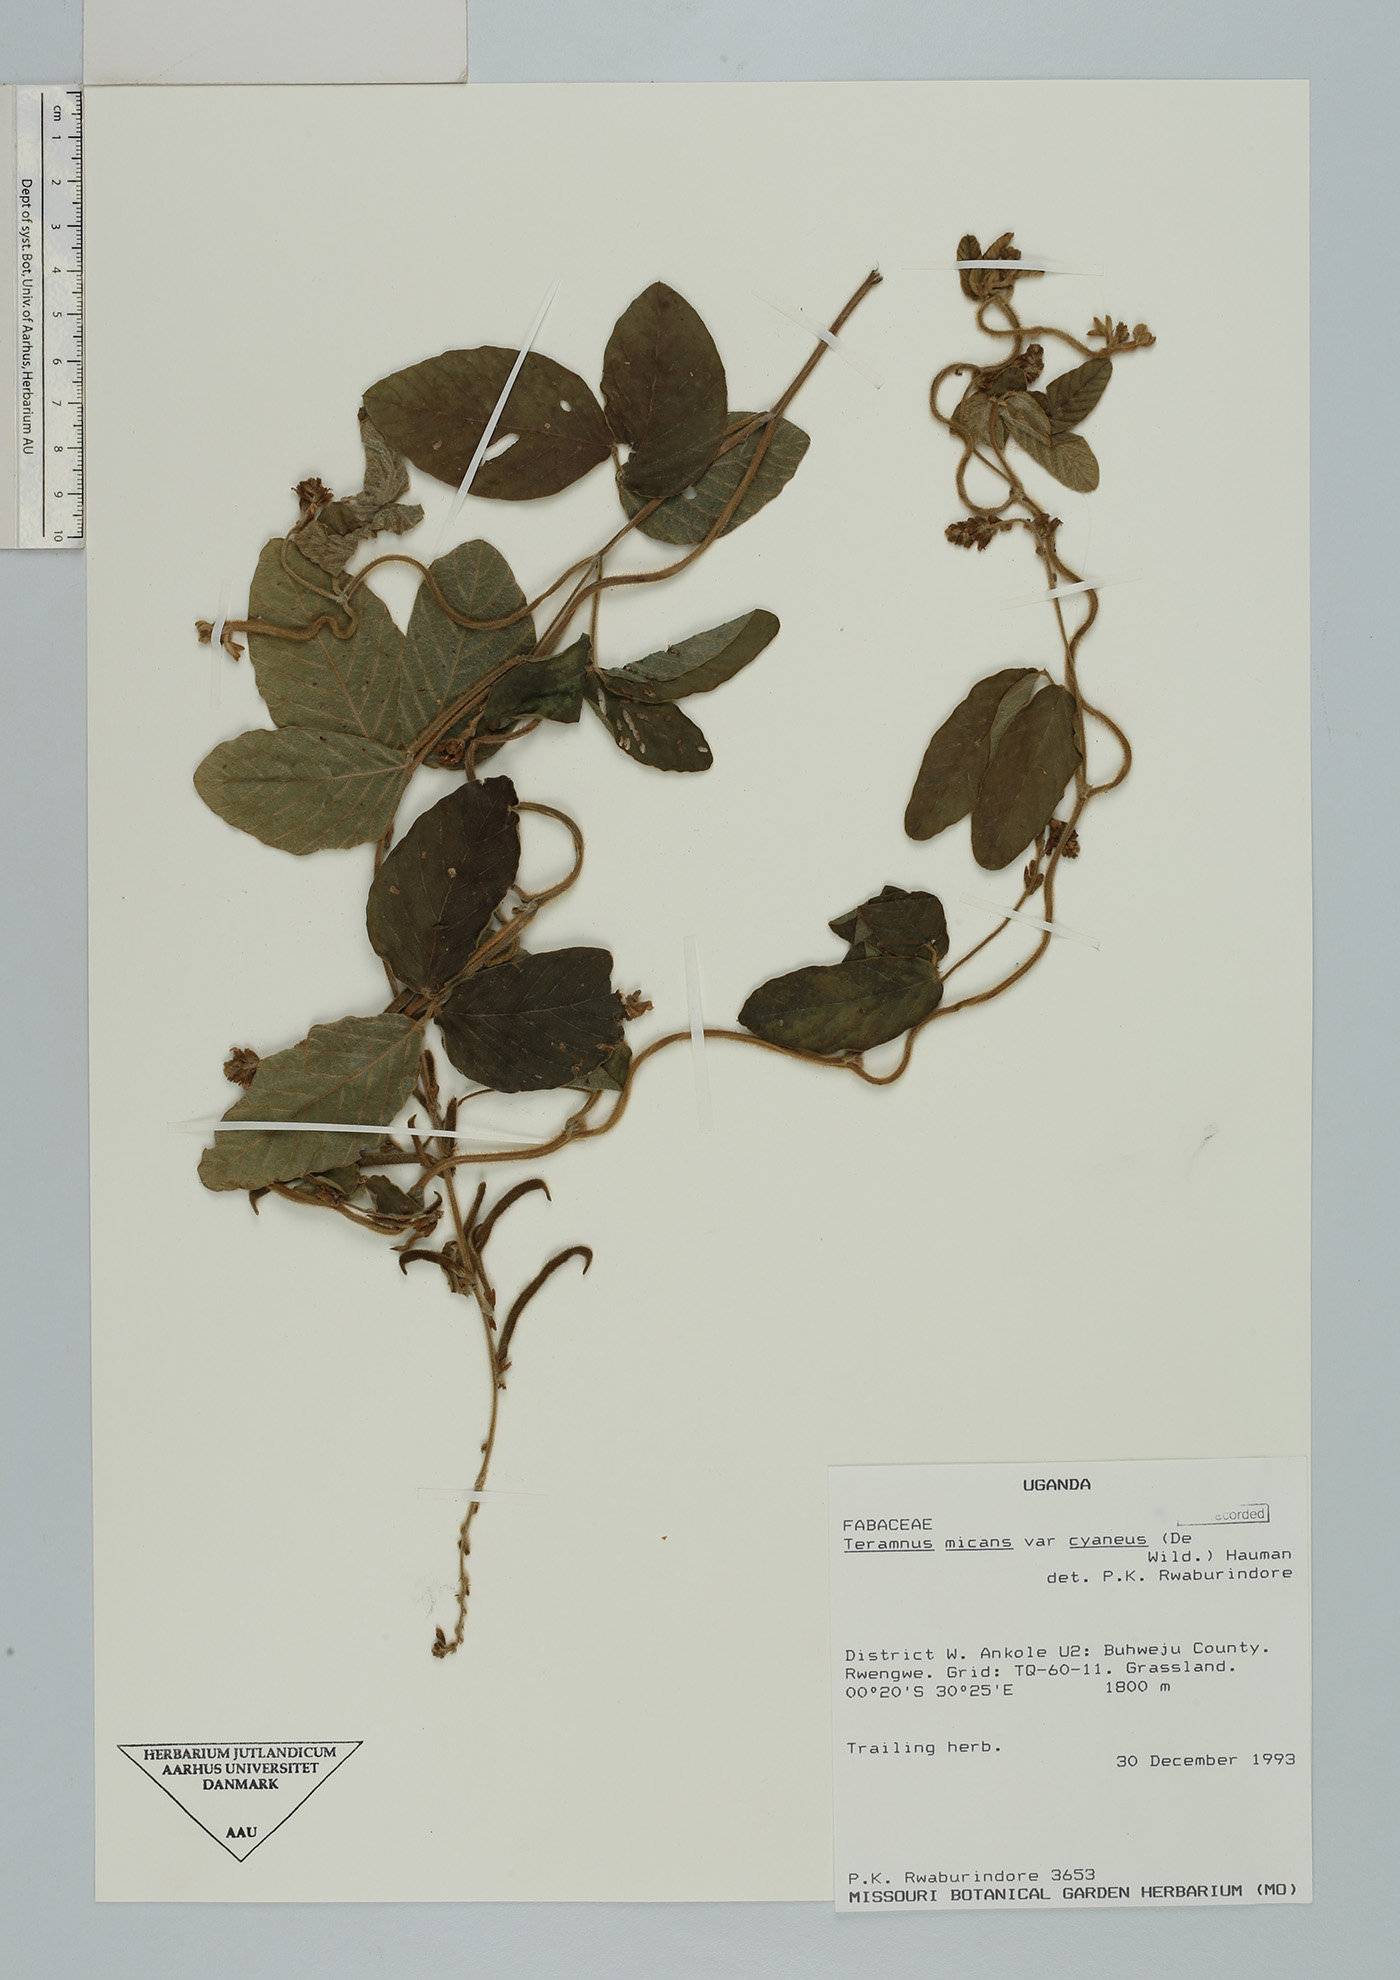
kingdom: Plantae
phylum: Tracheophyta
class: Magnoliopsida
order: Fabales
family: Fabaceae
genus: Teramnus
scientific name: Teramnus micans
